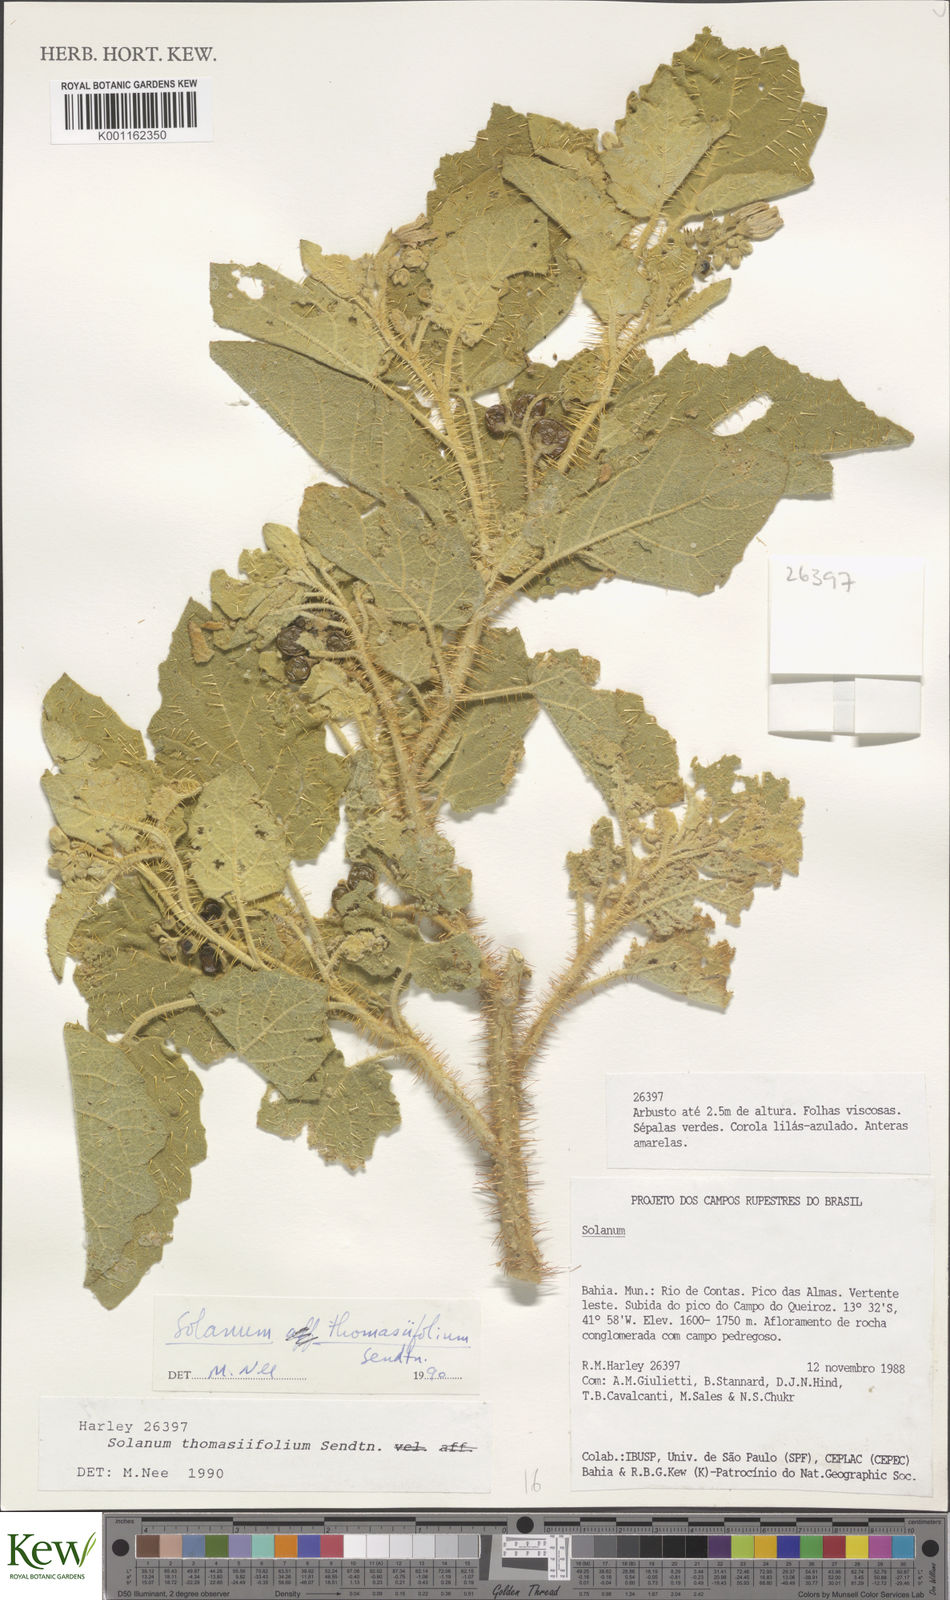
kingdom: Plantae
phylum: Tracheophyta
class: Magnoliopsida
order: Solanales
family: Solanaceae
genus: Solanum
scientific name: Solanum thomasiifolium
